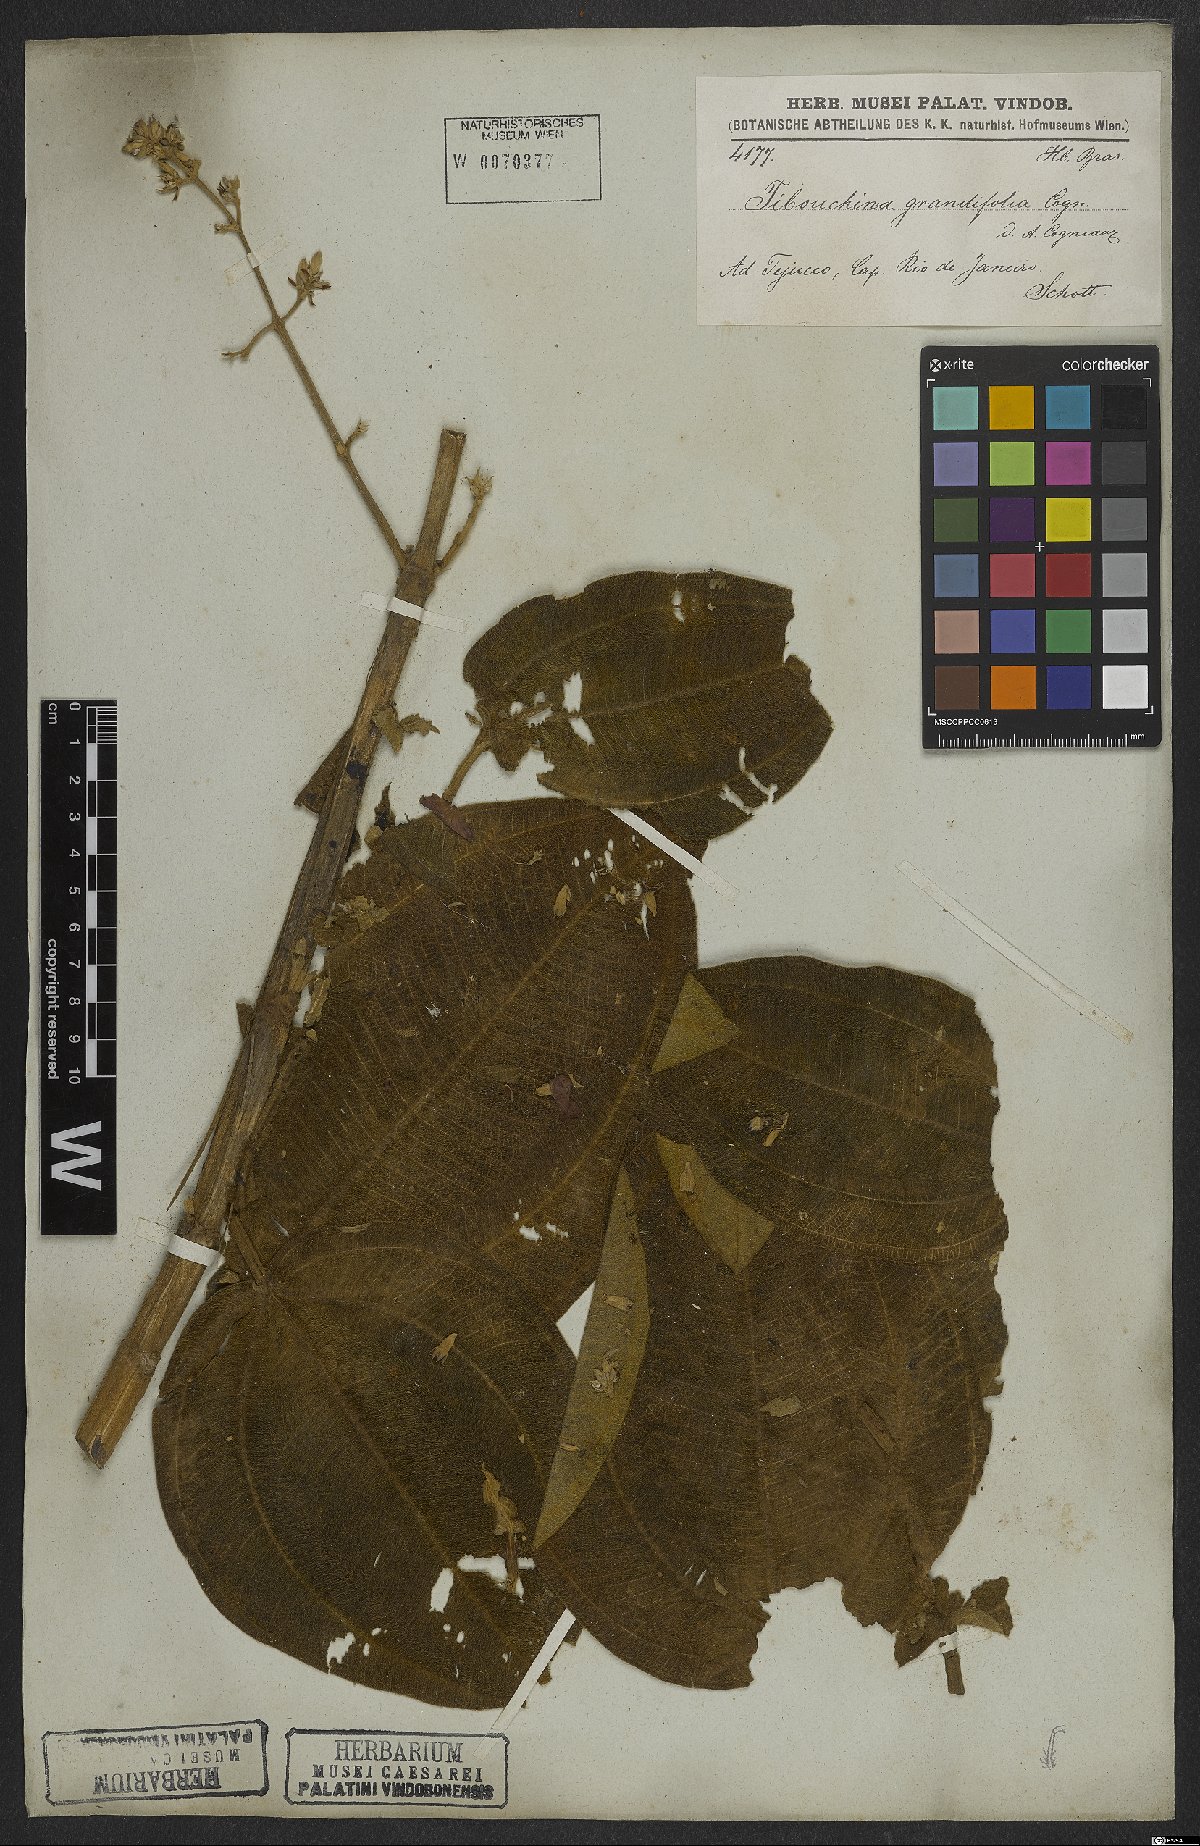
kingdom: Plantae
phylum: Tracheophyta
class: Magnoliopsida
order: Myrtales
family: Melastomataceae
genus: Pleroma
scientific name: Pleroma heteromallum
